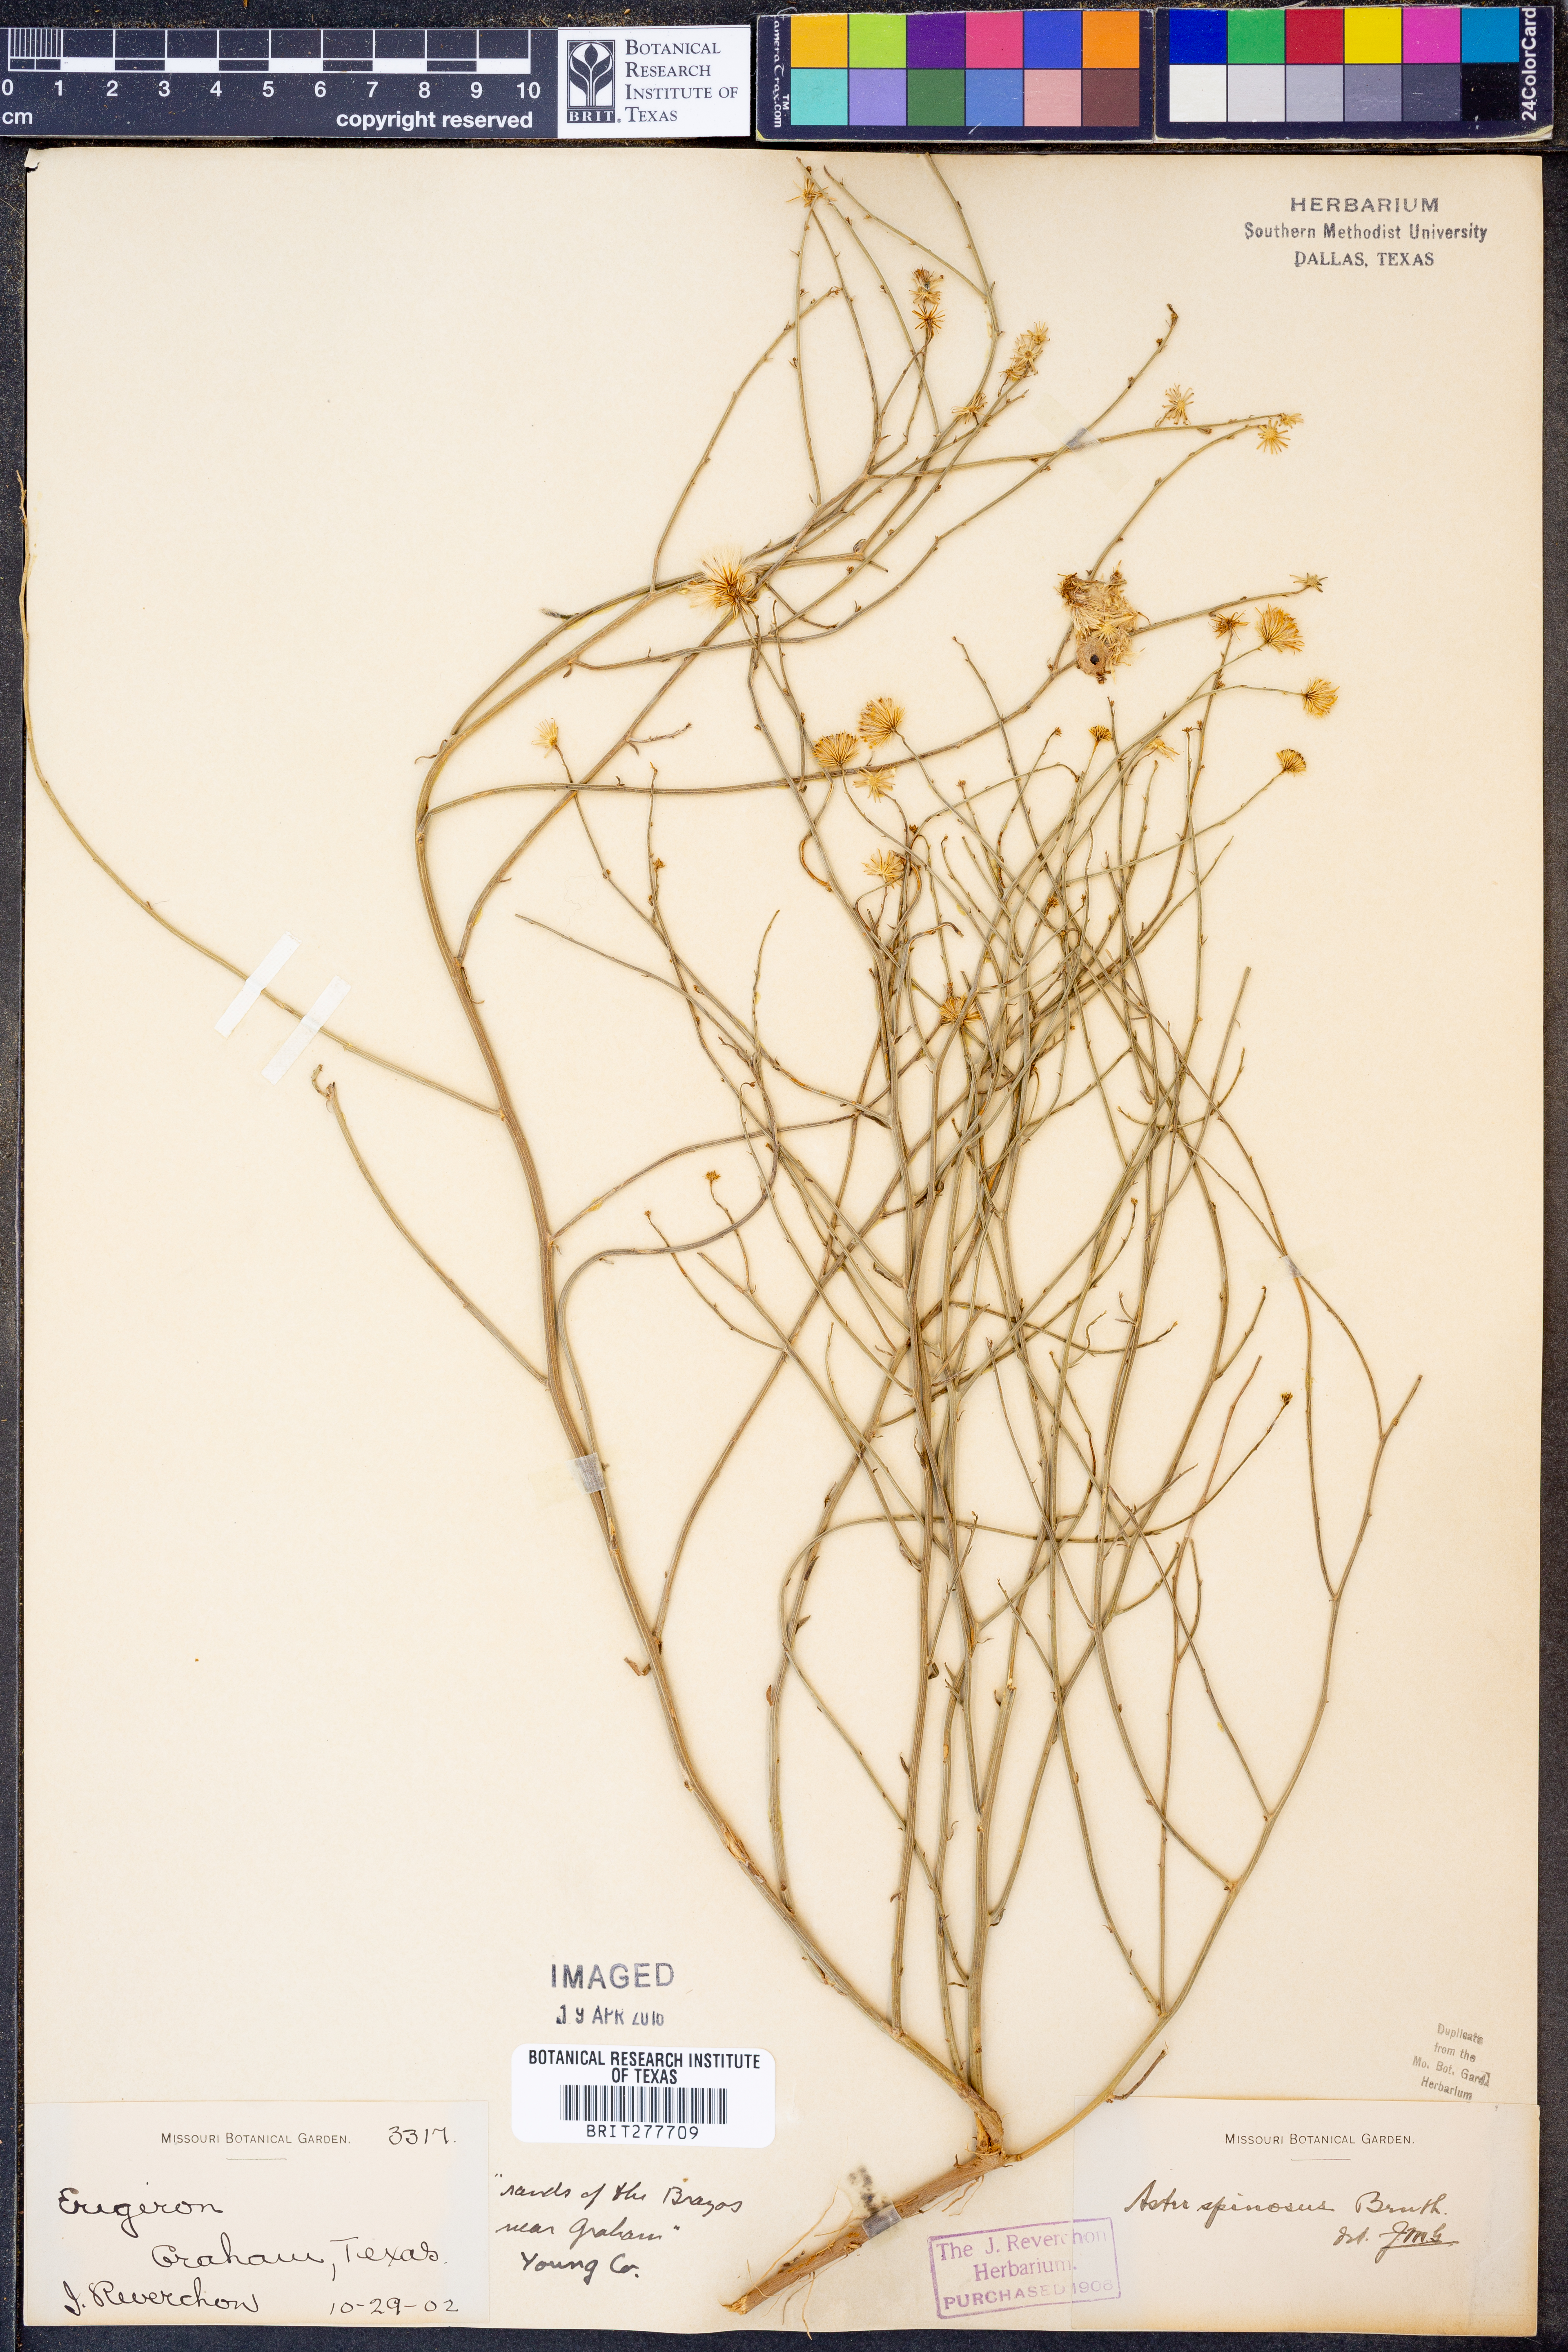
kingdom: Plantae
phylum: Tracheophyta
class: Magnoliopsida
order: Asterales
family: Asteraceae
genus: Chloracantha
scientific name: Chloracantha spinosa
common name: Mexican devilweed
